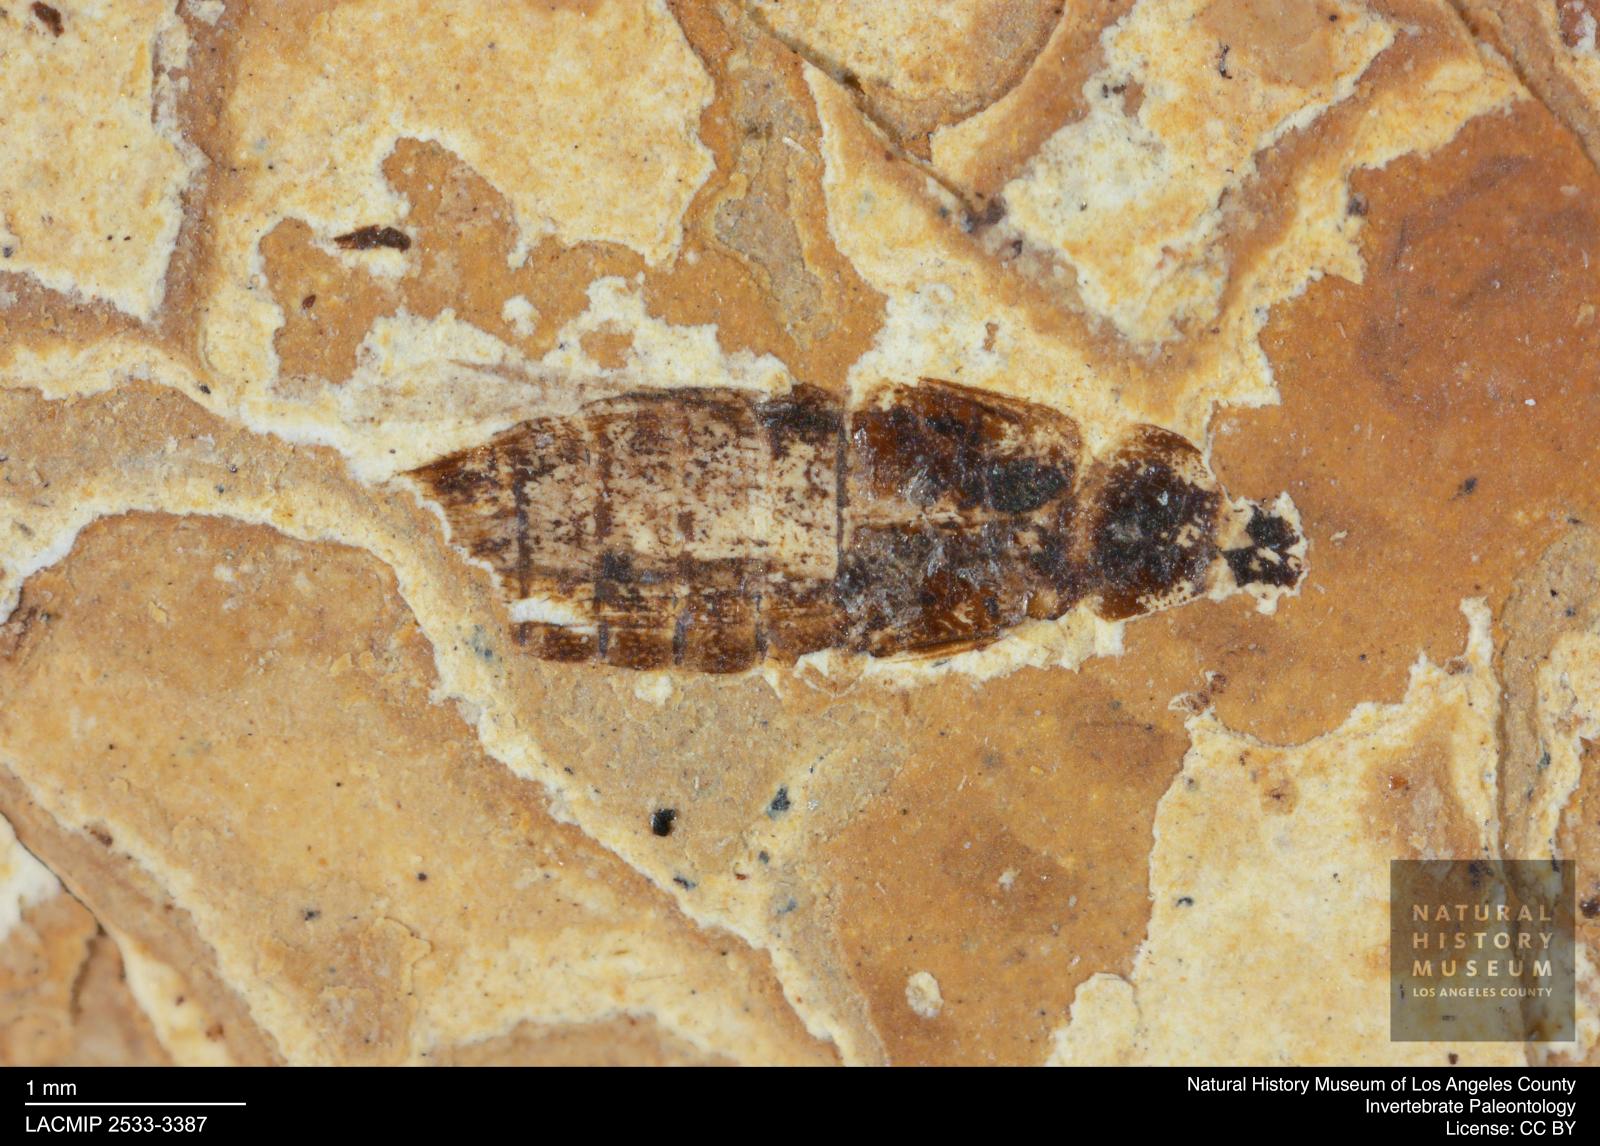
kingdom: Animalia
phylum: Arthropoda
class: Insecta
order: Coleoptera
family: Staphylinidae
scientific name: Staphylinidae
